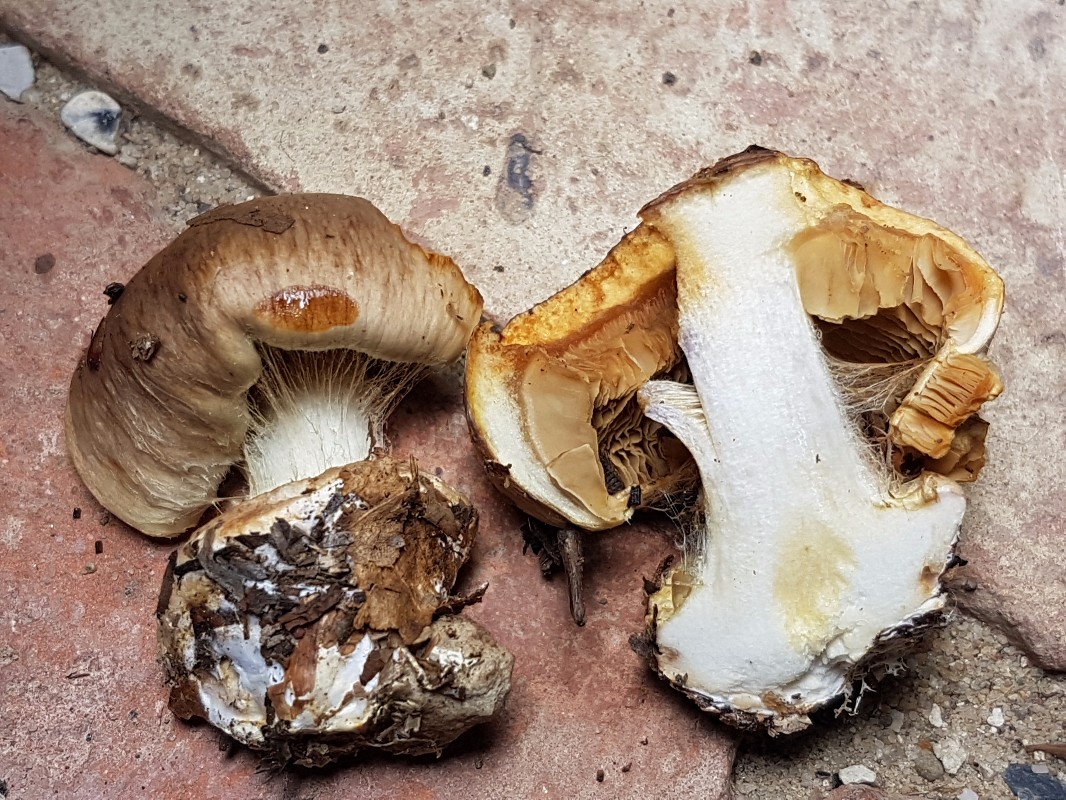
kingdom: Fungi
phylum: Basidiomycota
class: Agaricomycetes
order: Agaricales
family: Cortinariaceae
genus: Calonarius
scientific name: Calonarius humolens
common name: radise-slørhat
